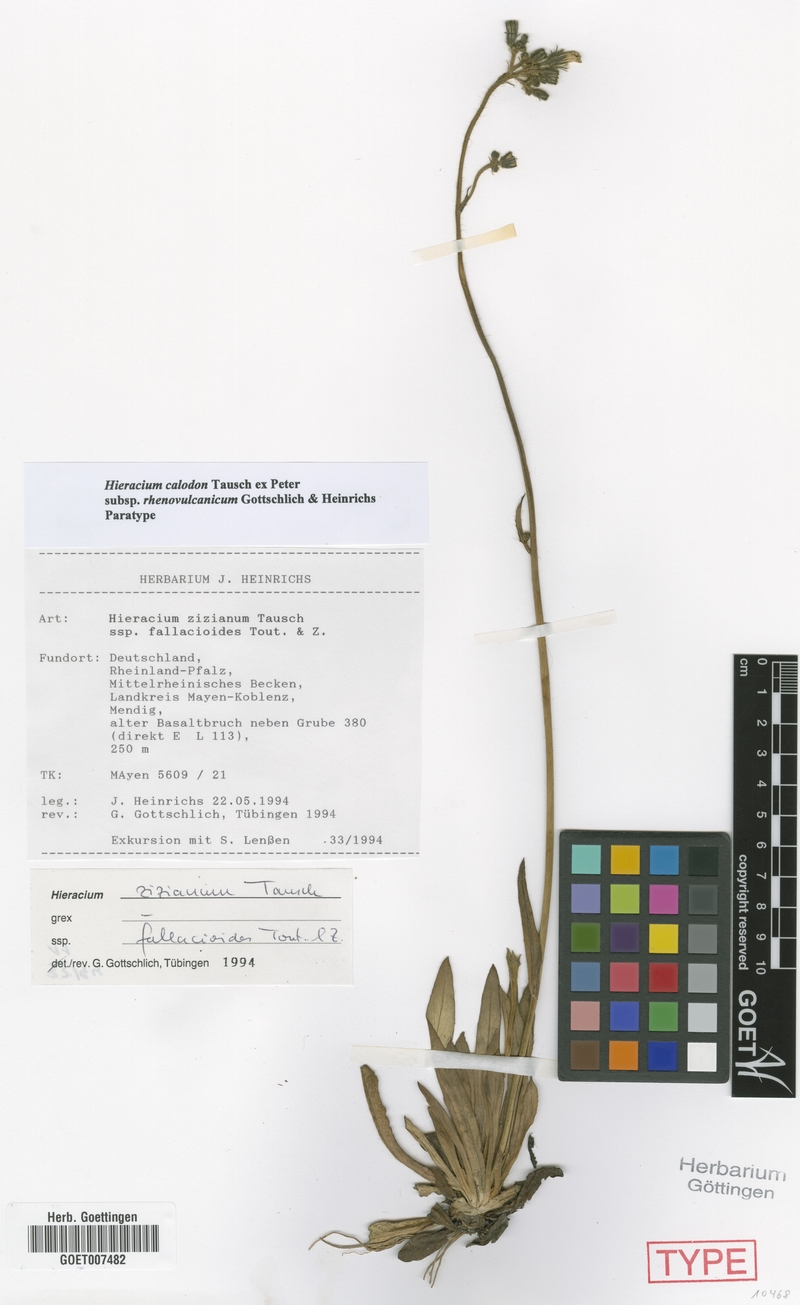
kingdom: Plantae
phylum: Tracheophyta
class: Magnoliopsida
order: Asterales
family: Asteraceae
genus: Pilosella
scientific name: Pilosella calodon
